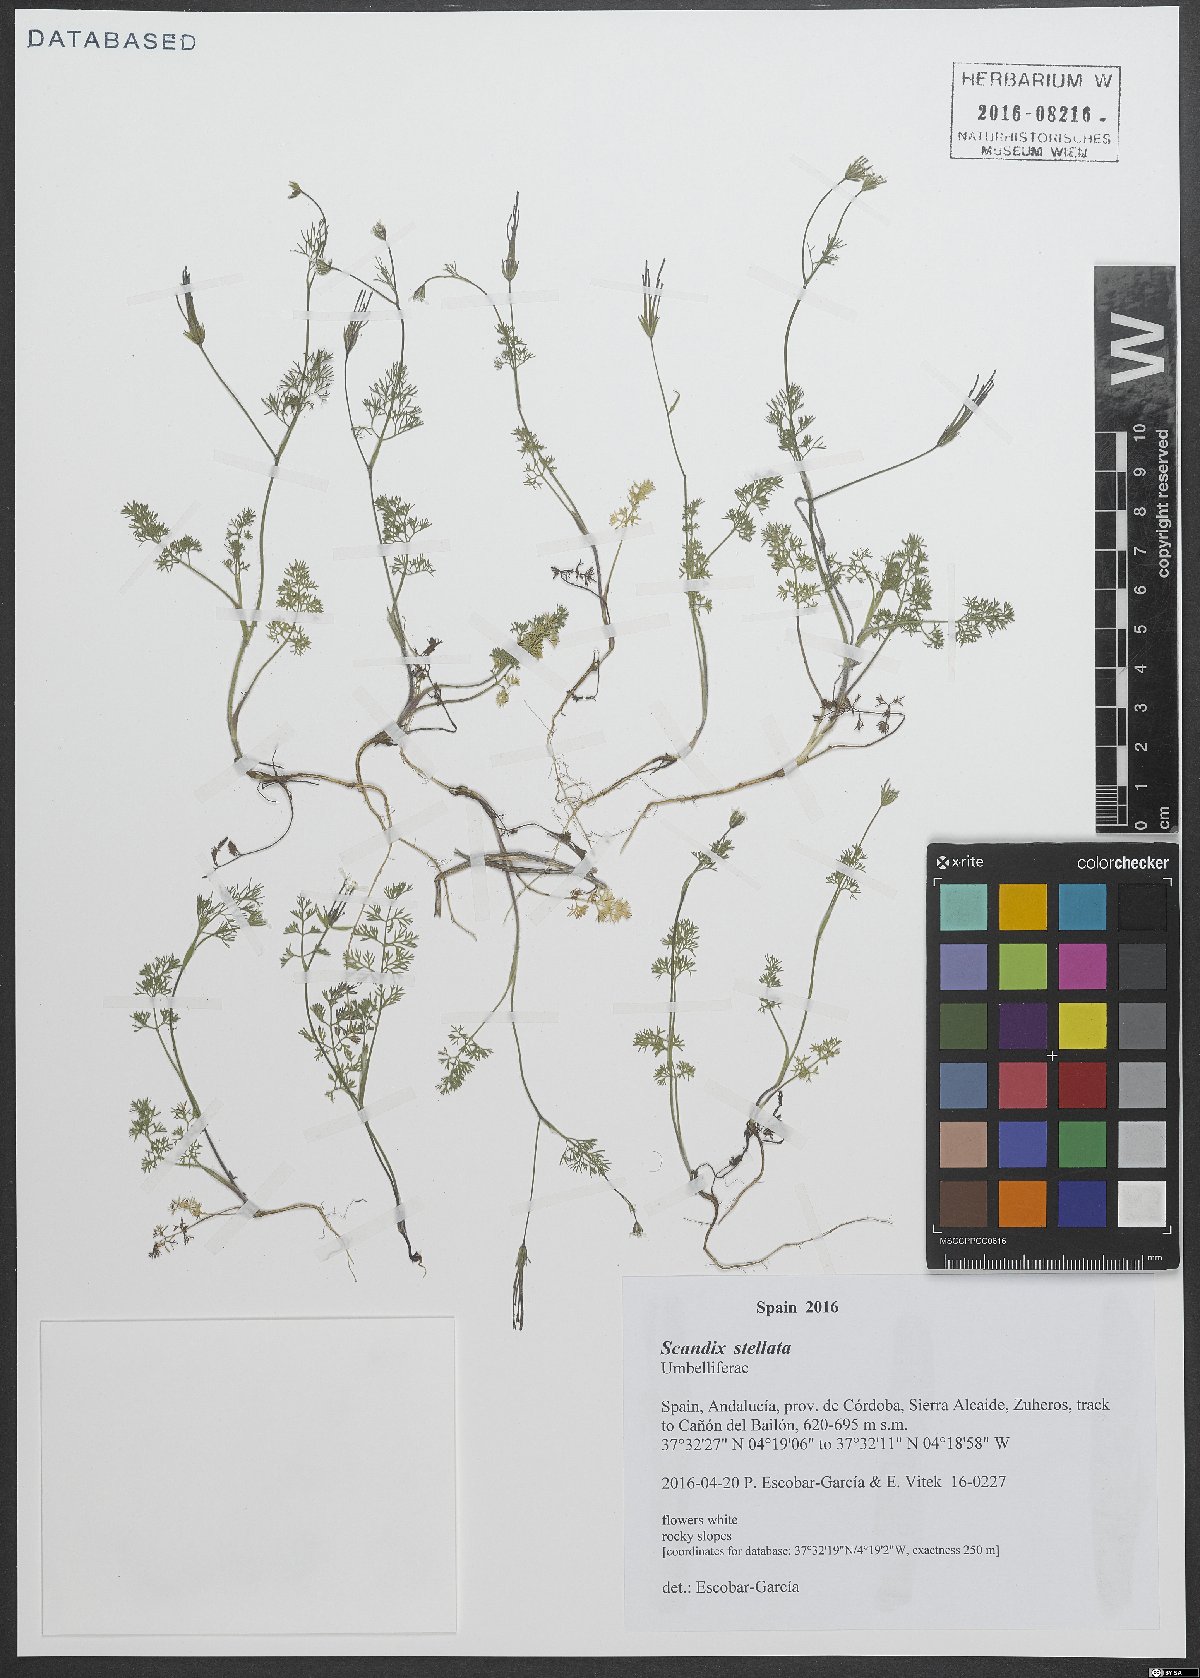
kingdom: Plantae
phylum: Tracheophyta
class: Magnoliopsida
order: Apiales
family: Apiaceae
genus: Scandix
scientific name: Scandix stellata
